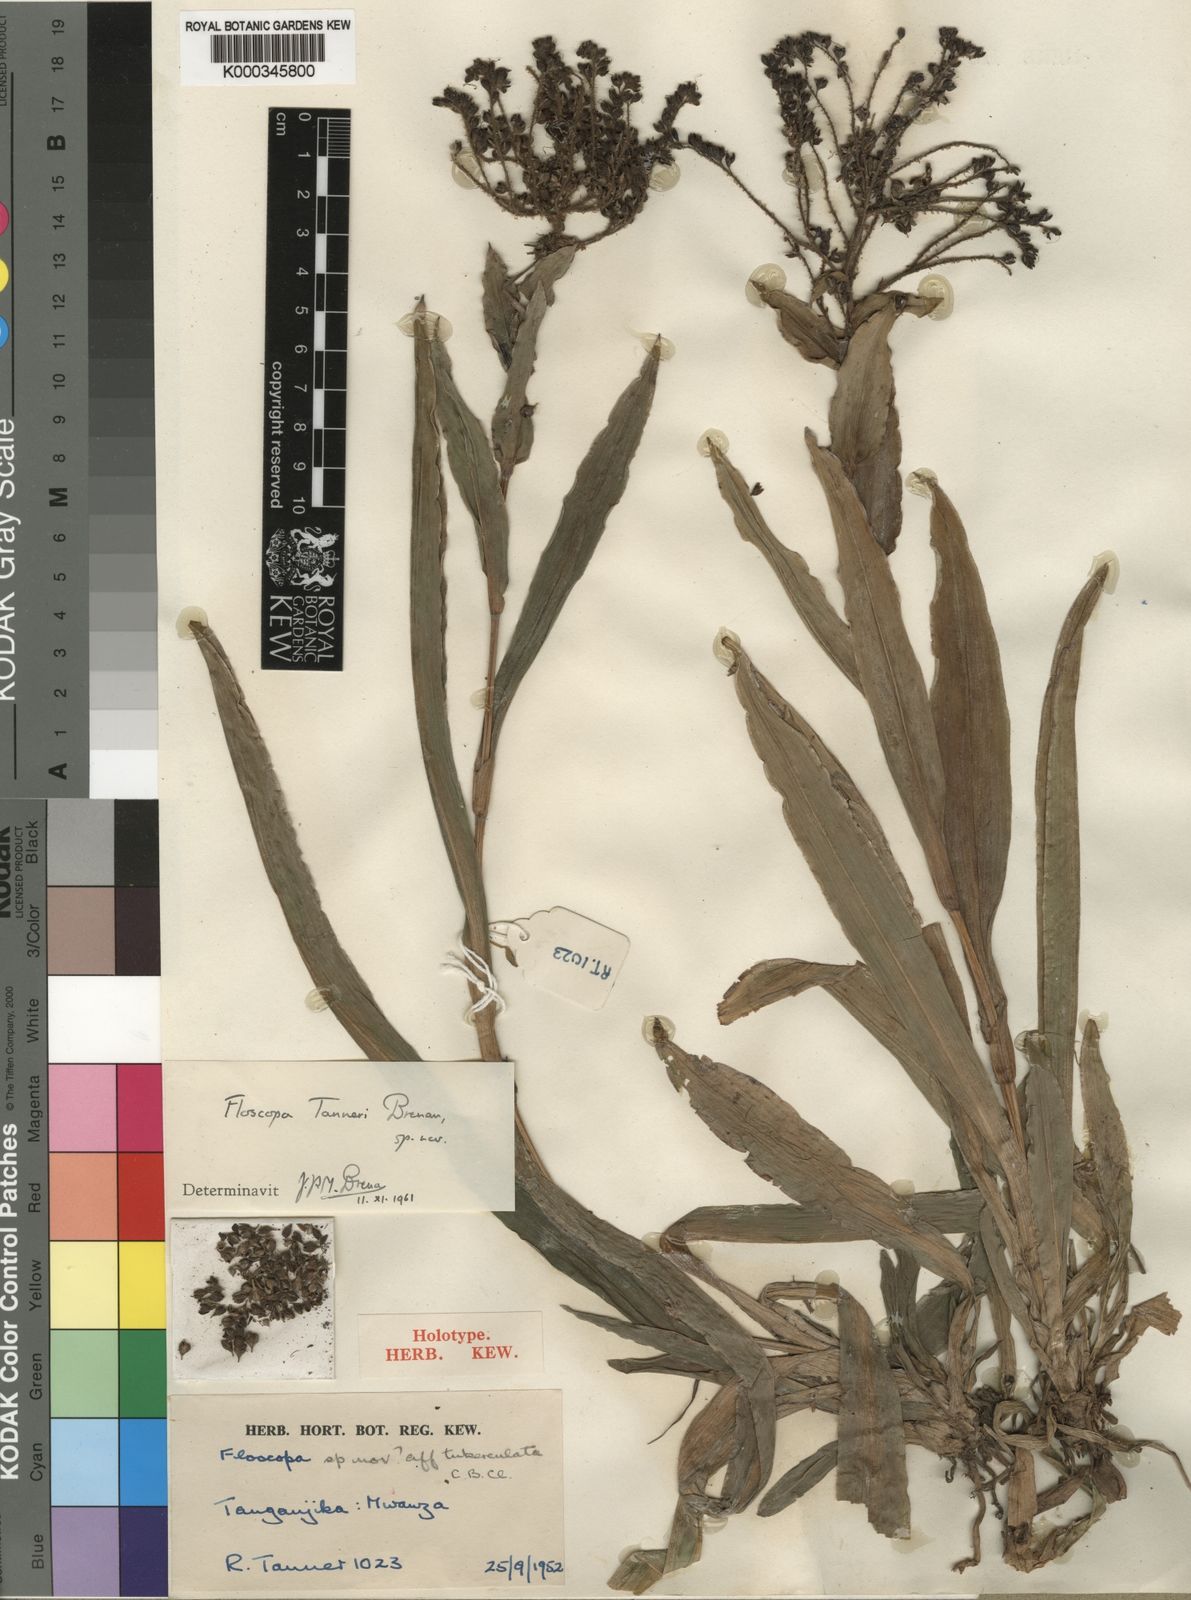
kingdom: Plantae
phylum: Tracheophyta
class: Liliopsida
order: Commelinales
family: Commelinaceae
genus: Floscopa
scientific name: Floscopa tanneri
